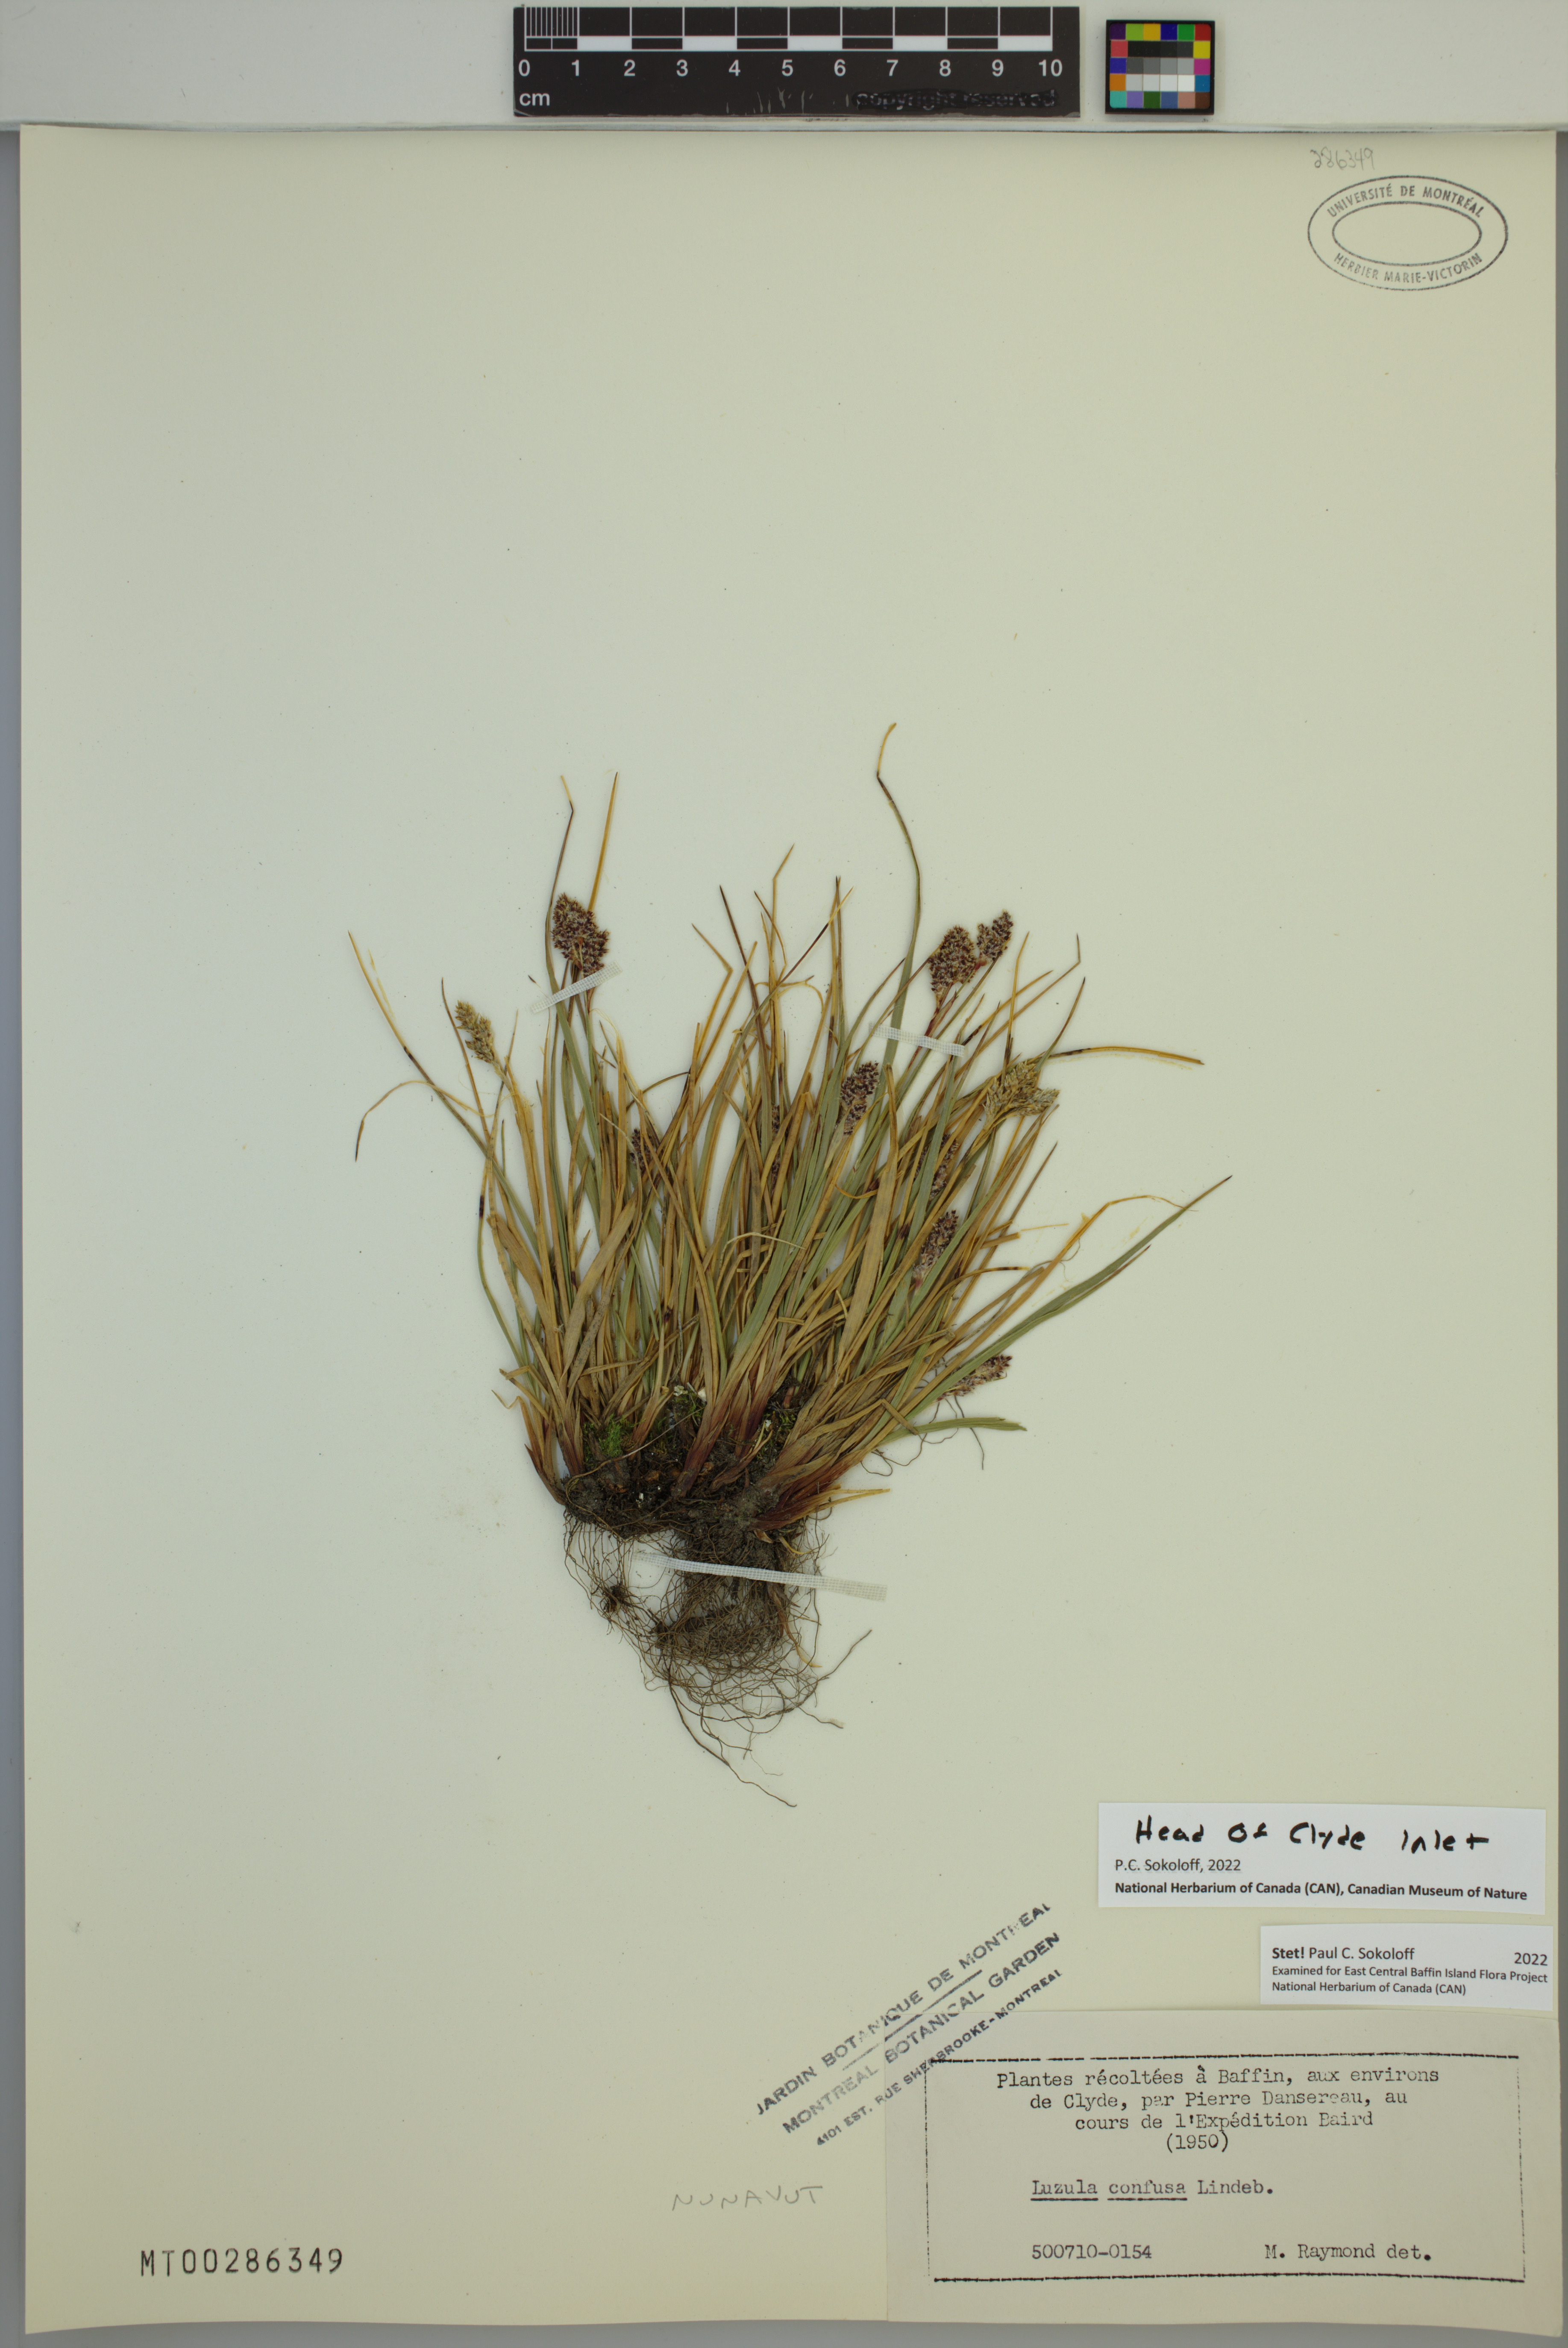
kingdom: Plantae
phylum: Tracheophyta
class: Liliopsida
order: Poales
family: Juncaceae
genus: Luzula
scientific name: Luzula confusa
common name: Northern wood rush
